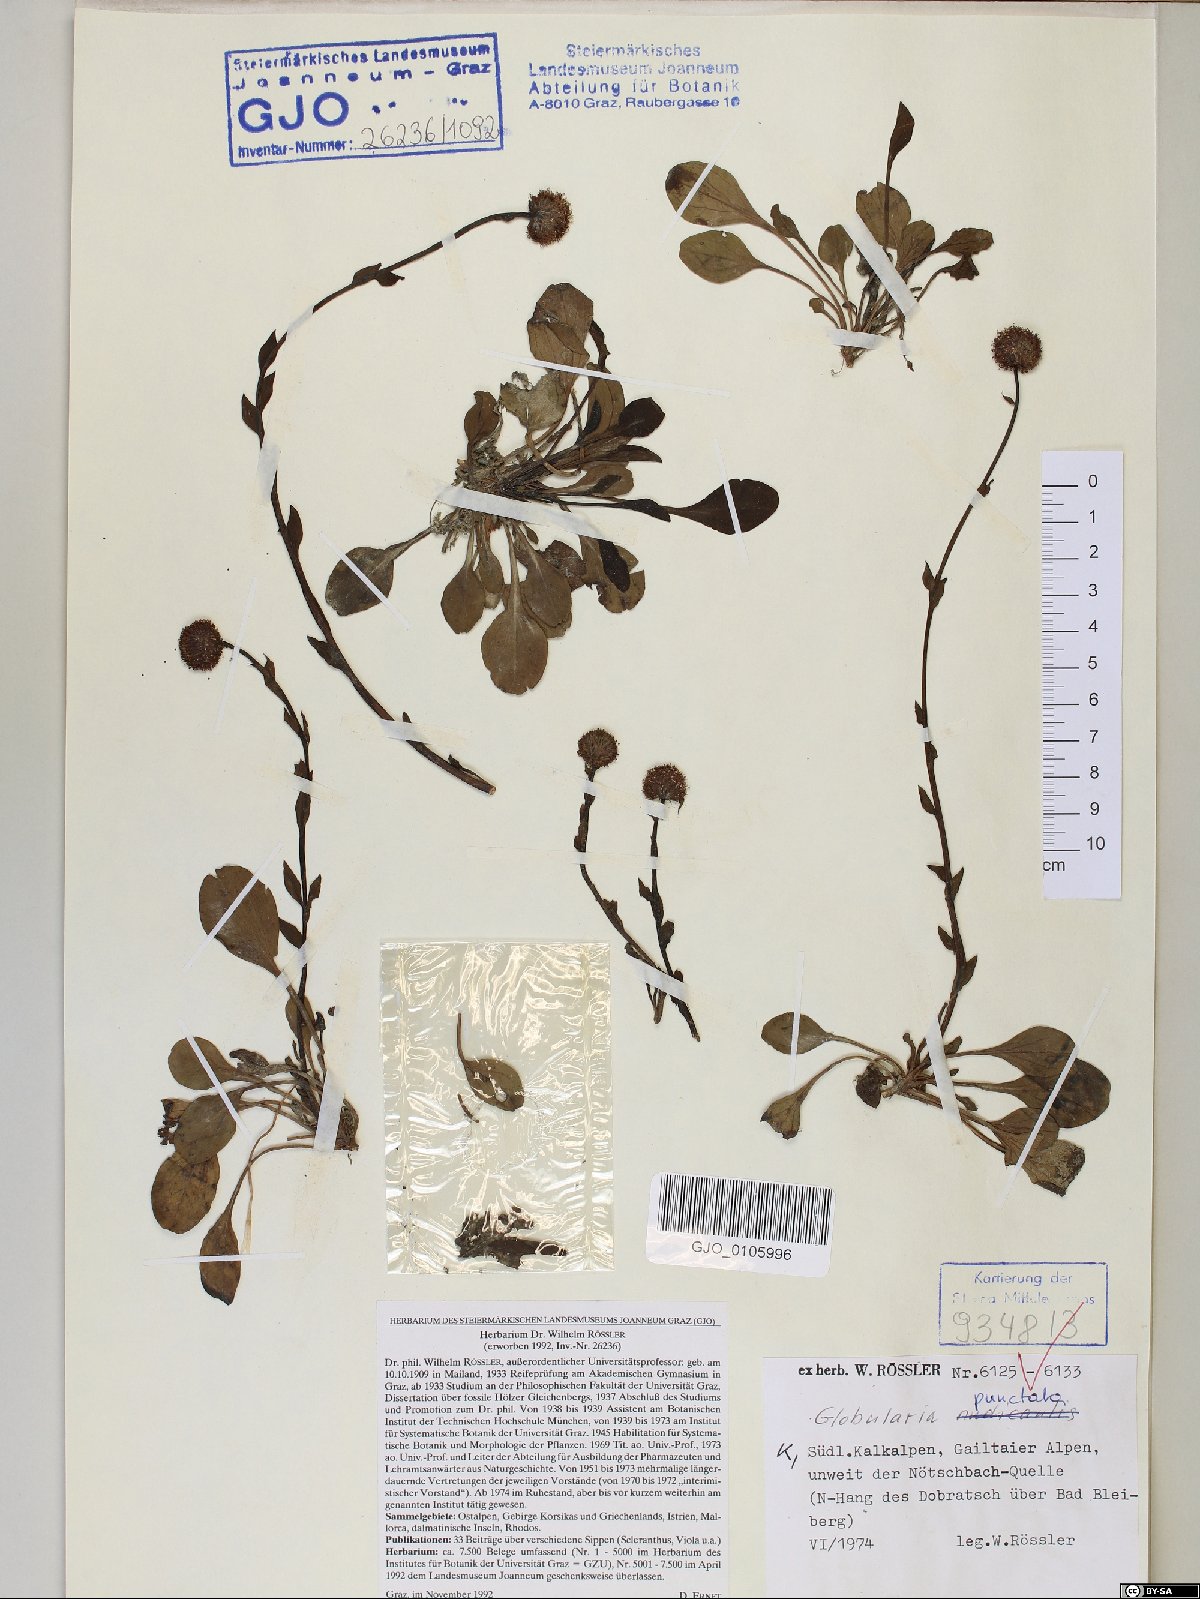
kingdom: Plantae
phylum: Tracheophyta
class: Magnoliopsida
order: Lamiales
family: Plantaginaceae
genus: Globularia
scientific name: Globularia bisnagarica
